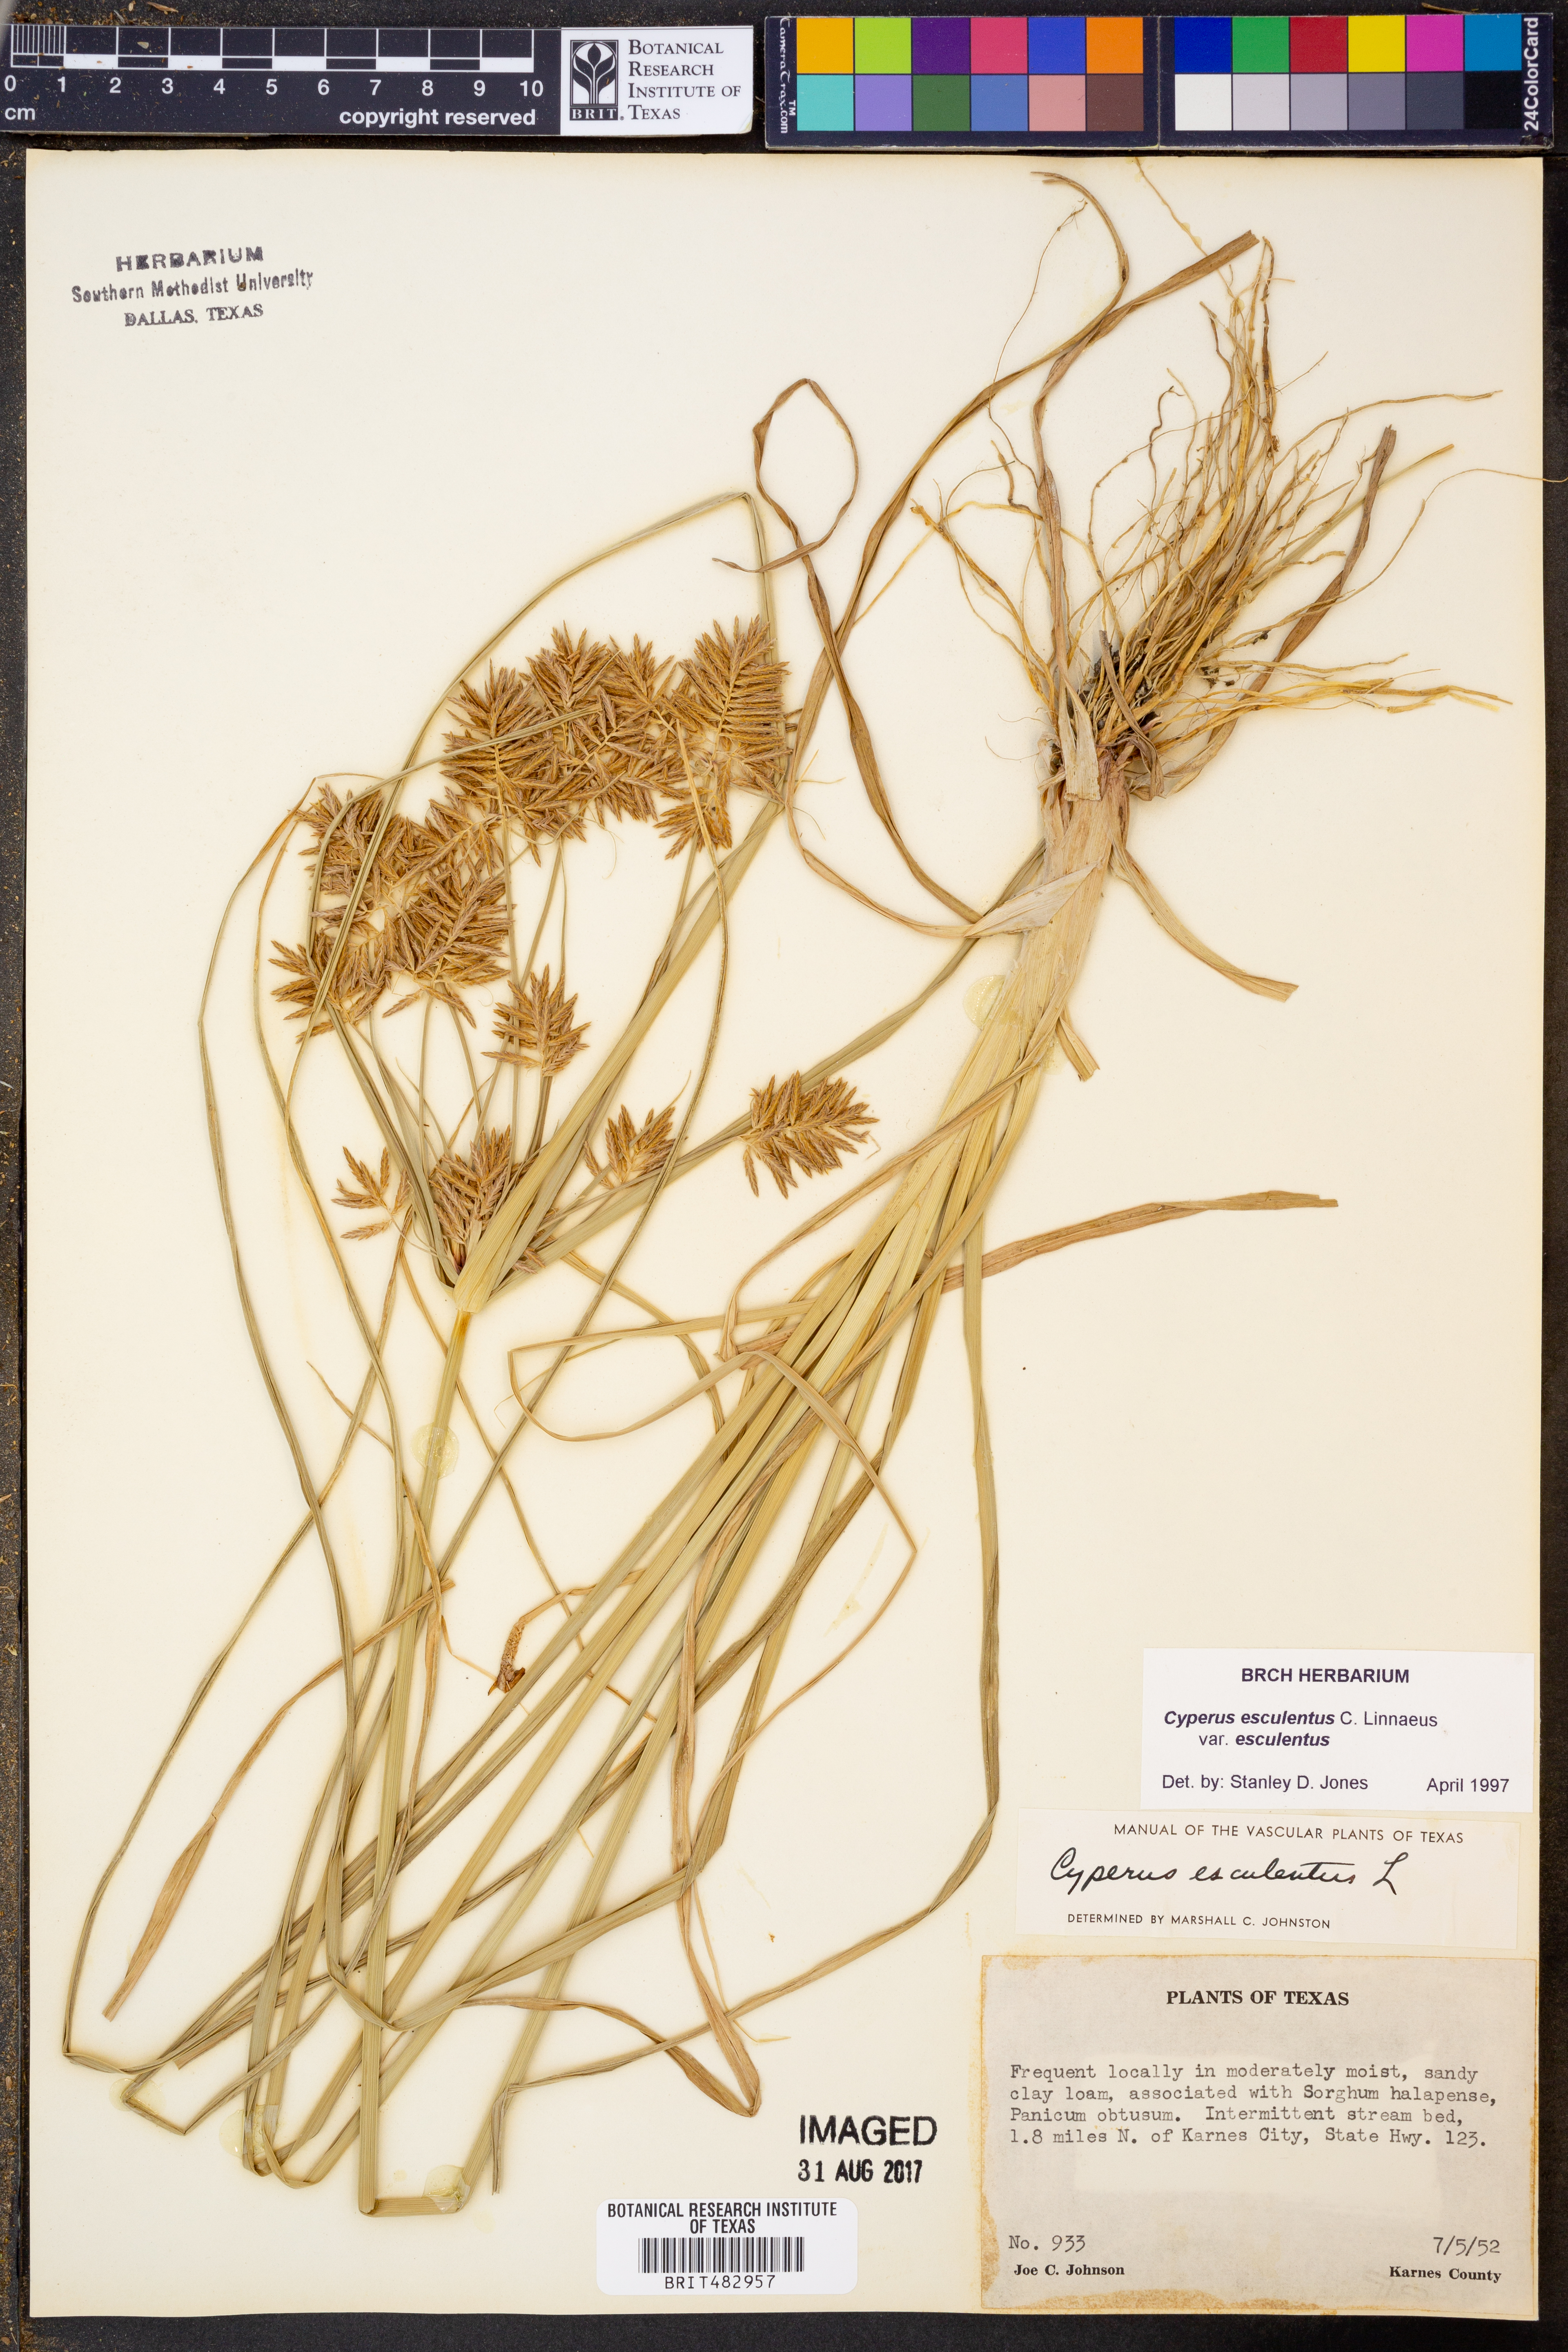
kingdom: Plantae
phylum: Tracheophyta
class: Liliopsida
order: Poales
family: Cyperaceae
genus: Cyperus
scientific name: Cyperus esculentus
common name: Yellow nutsedge
